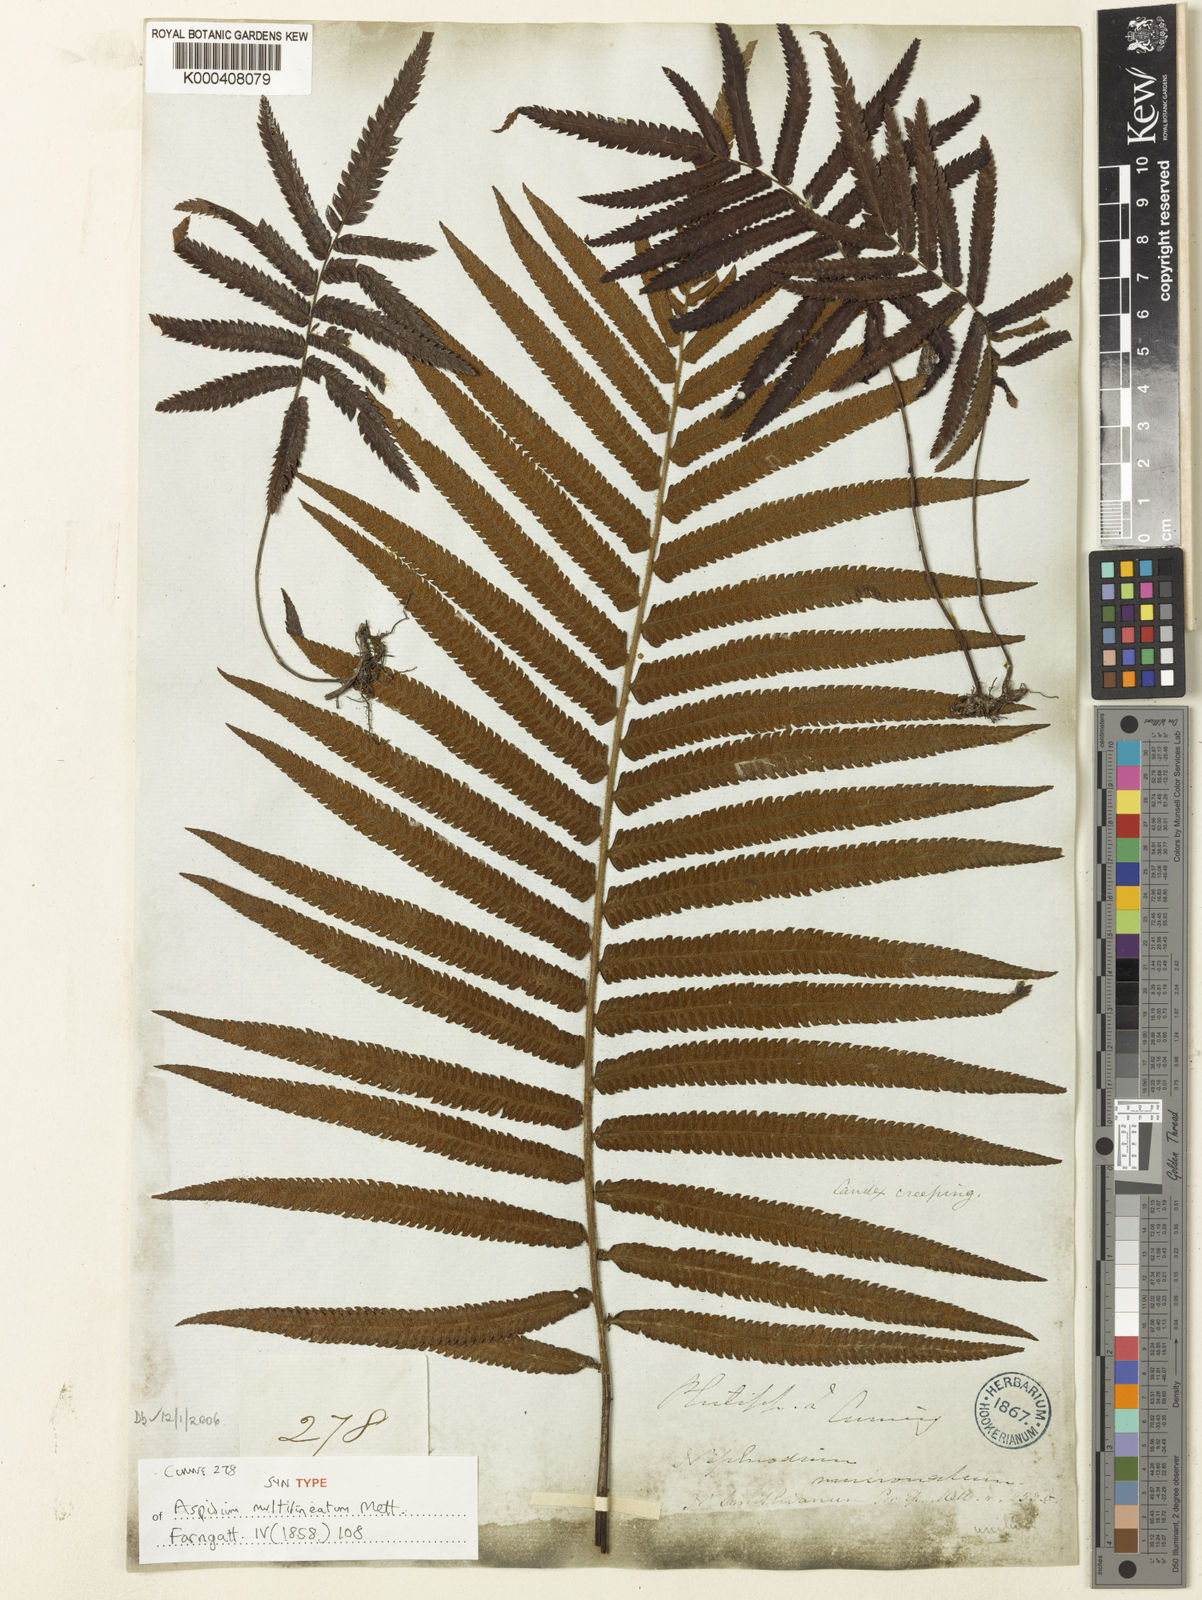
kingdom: Plantae
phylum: Tracheophyta
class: Polypodiopsida
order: Polypodiales
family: Thelypteridaceae
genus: Strophocaulon
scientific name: Strophocaulon unitum
